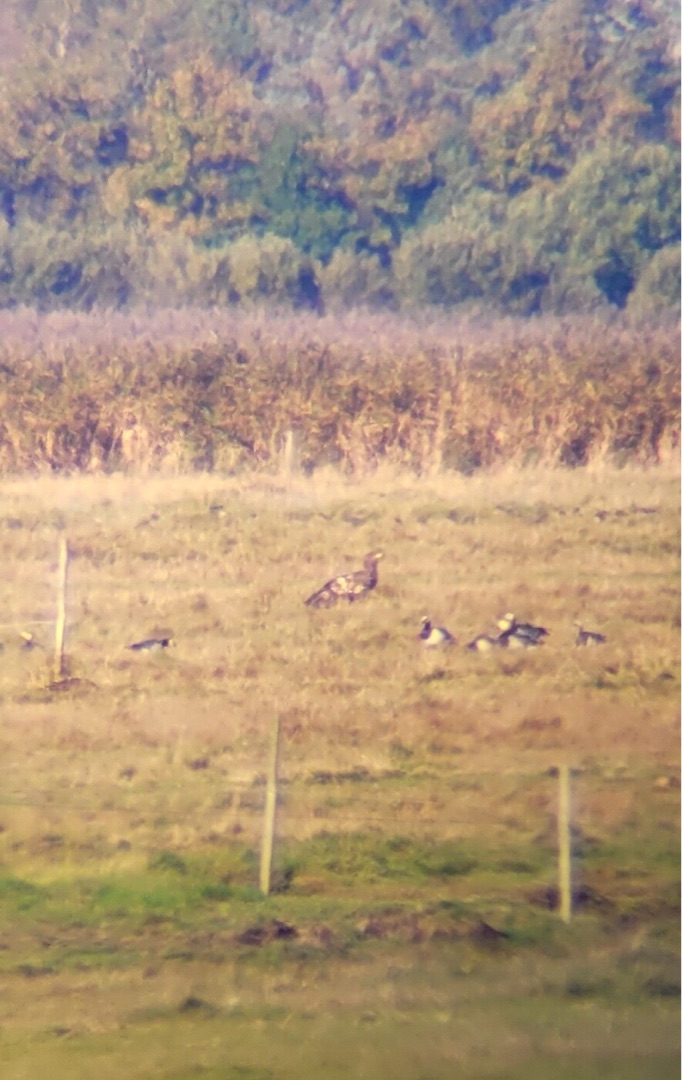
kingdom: Animalia
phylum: Chordata
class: Aves
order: Accipitriformes
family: Accipitridae
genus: Haliaeetus
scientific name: Haliaeetus albicilla
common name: Havørn
